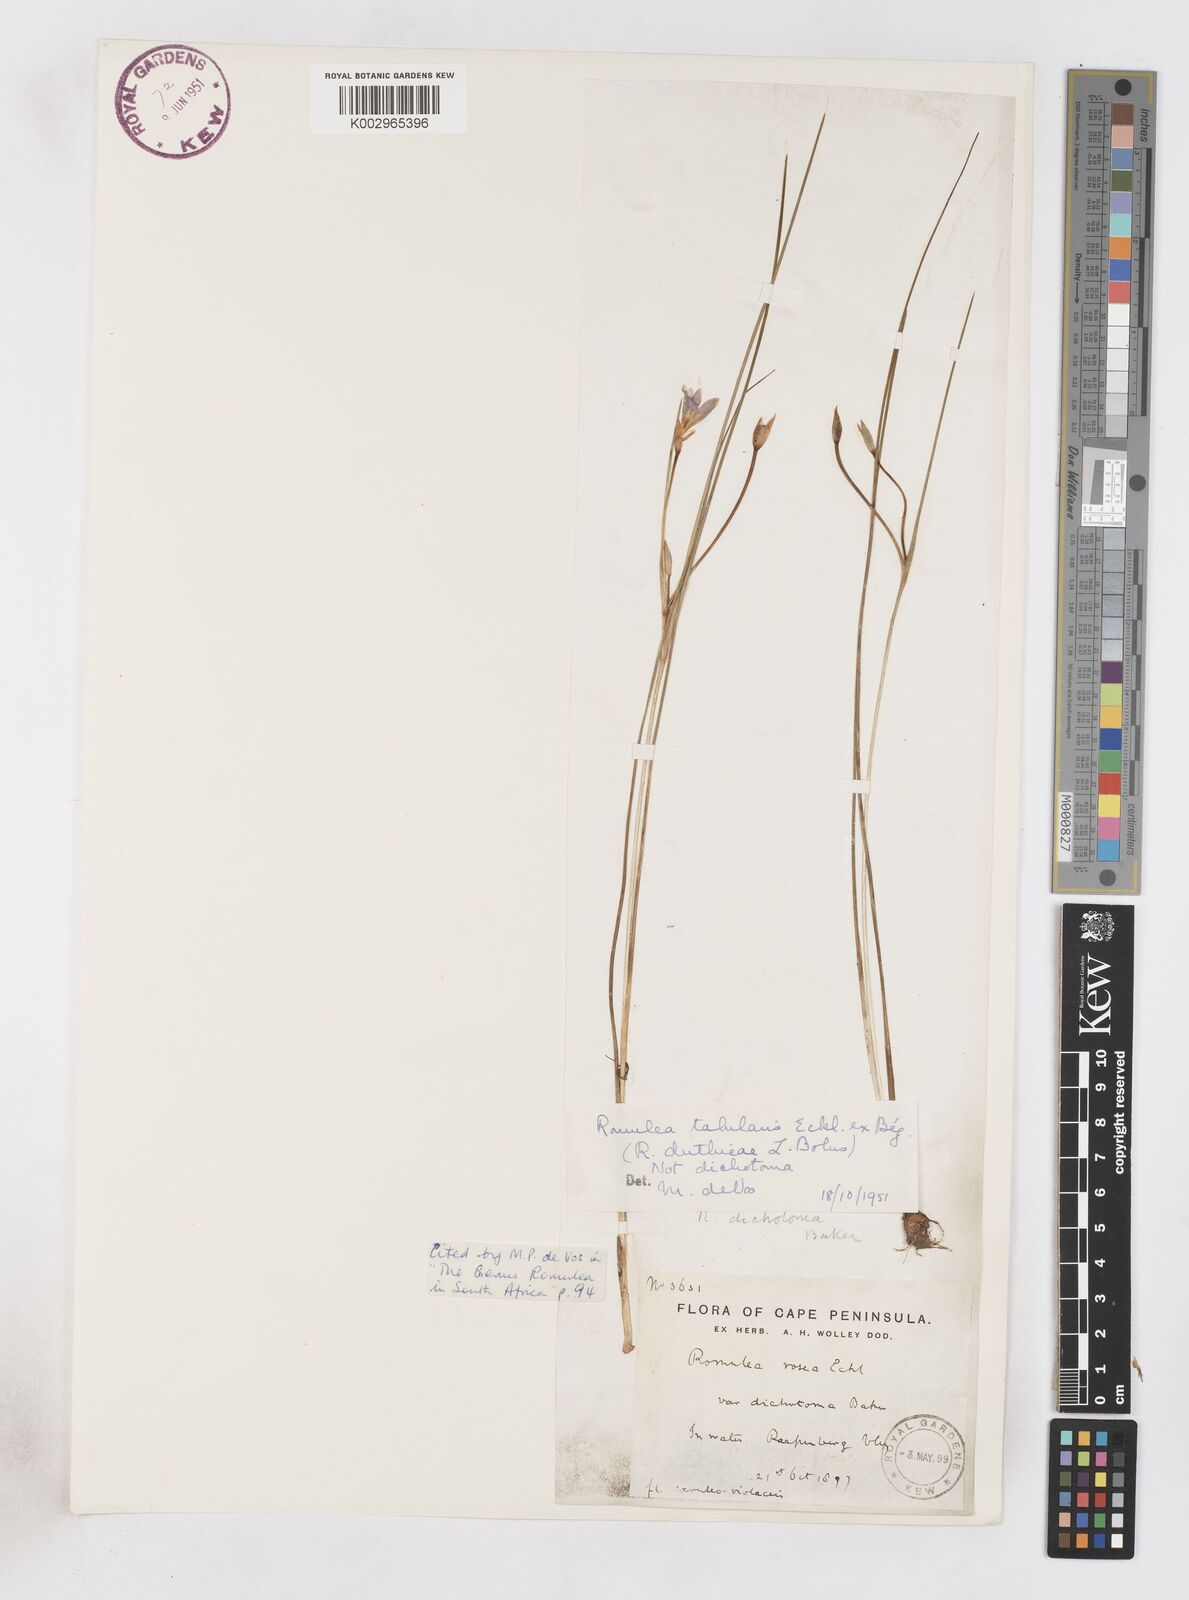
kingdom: Plantae
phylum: Tracheophyta
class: Liliopsida
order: Asparagales
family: Iridaceae
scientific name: Iridaceae
